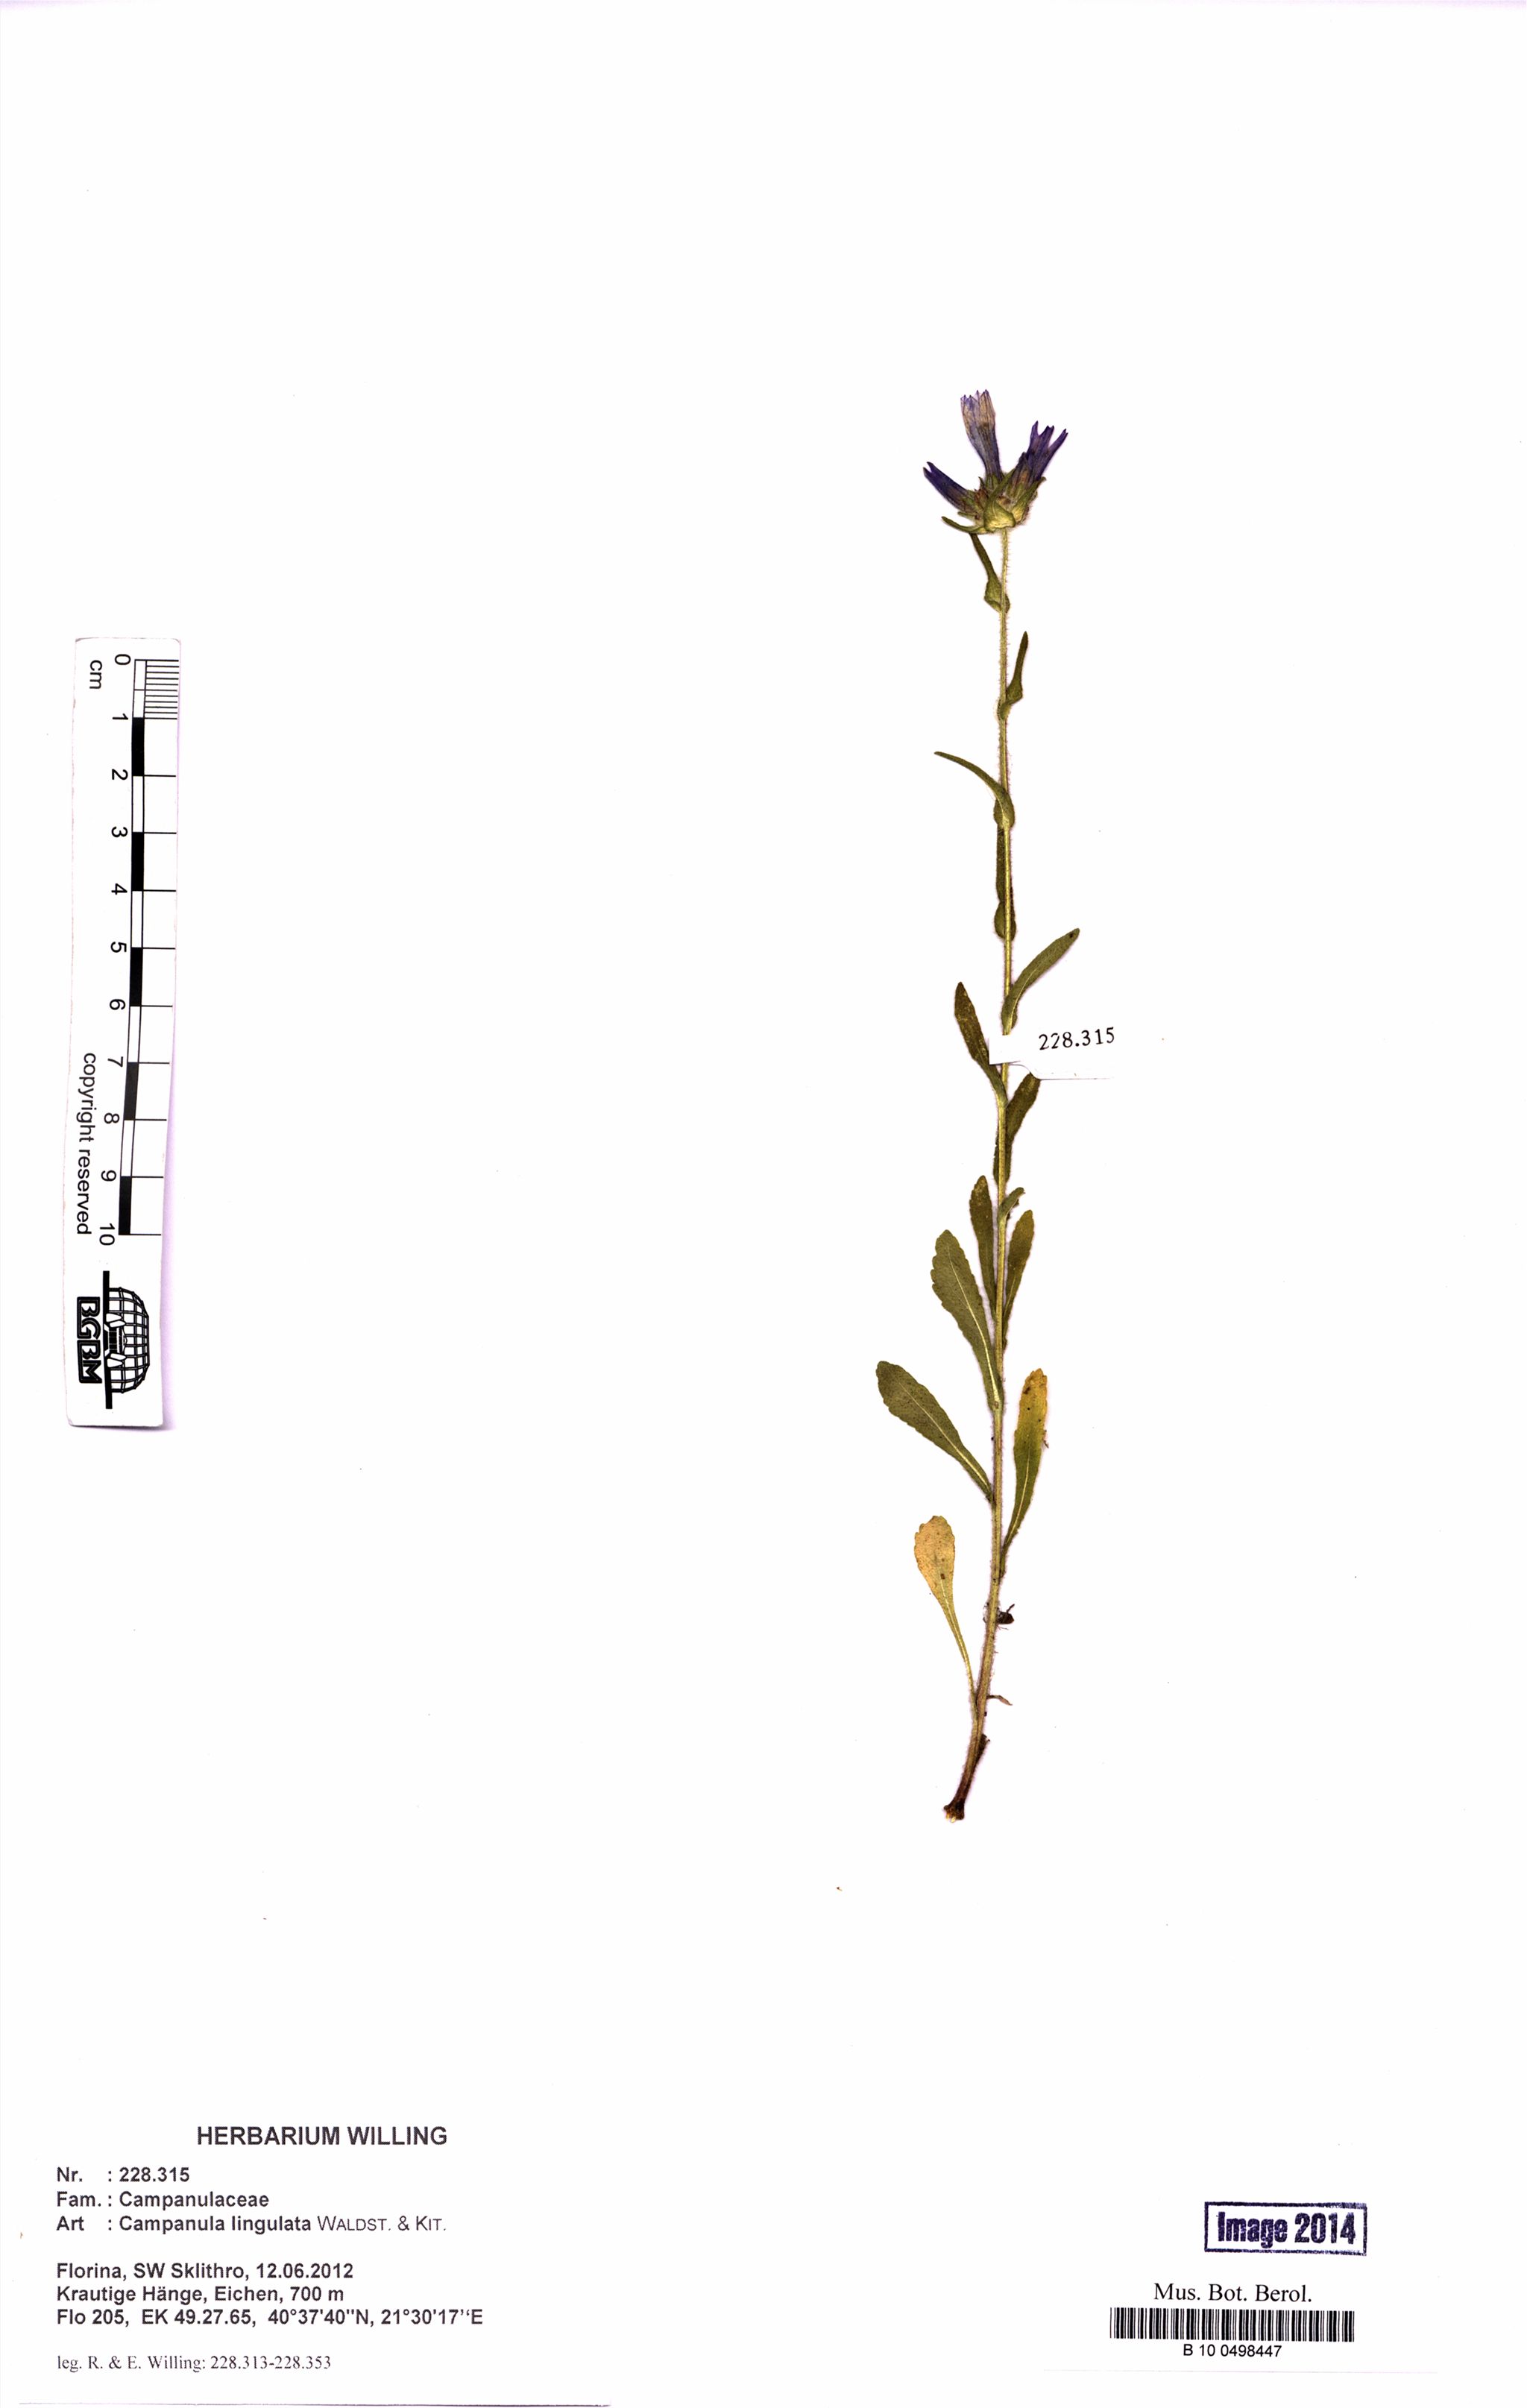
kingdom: Plantae
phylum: Tracheophyta
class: Magnoliopsida
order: Asterales
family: Campanulaceae
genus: Campanula
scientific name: Campanula lingulata
